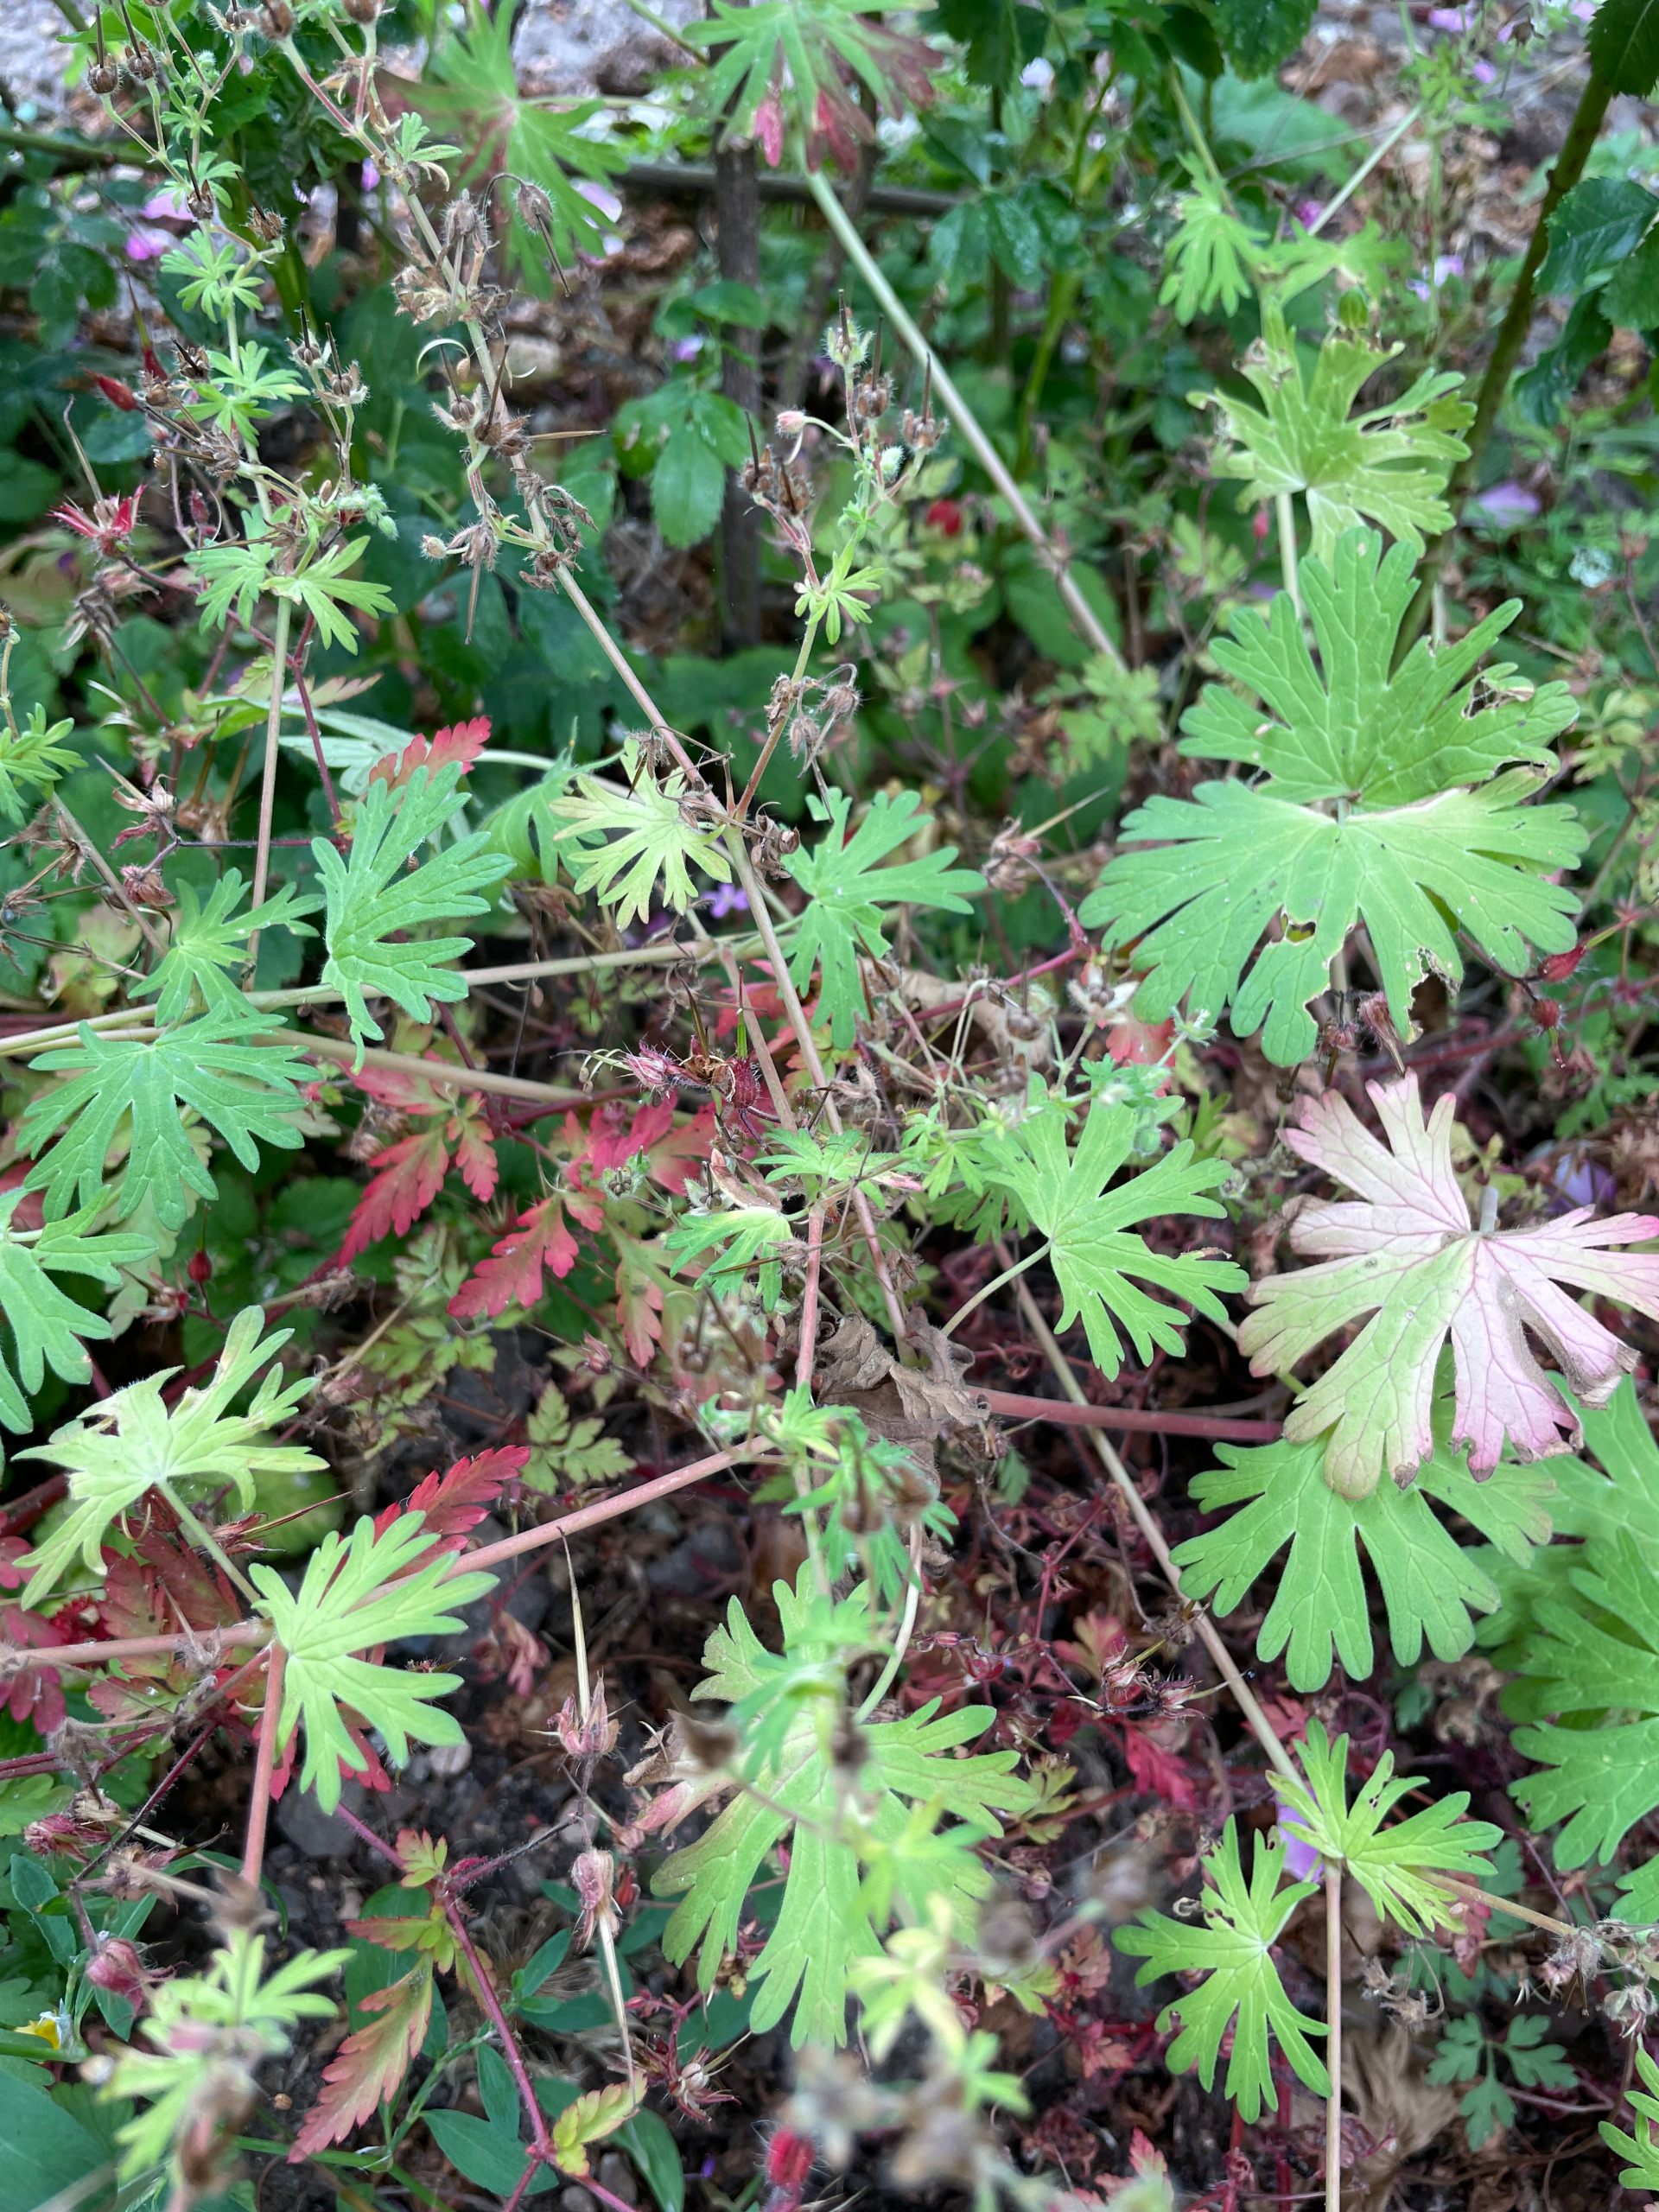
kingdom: Plantae
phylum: Tracheophyta
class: Magnoliopsida
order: Geraniales
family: Geraniaceae
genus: Geranium
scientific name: Geranium pusillum
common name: Liden storkenæb
